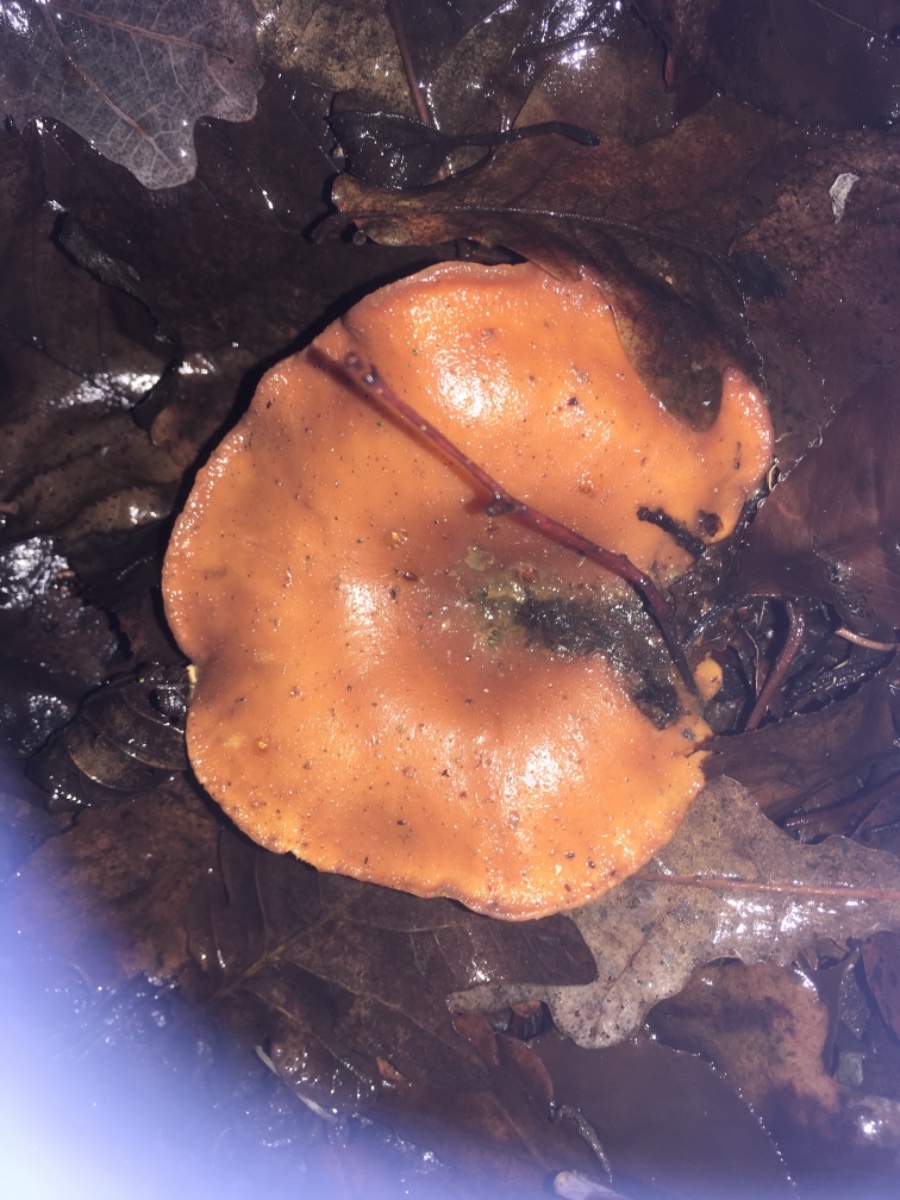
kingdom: Fungi
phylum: Basidiomycota
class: Agaricomycetes
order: Agaricales
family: Tricholomataceae
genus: Paralepista
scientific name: Paralepista flaccida
